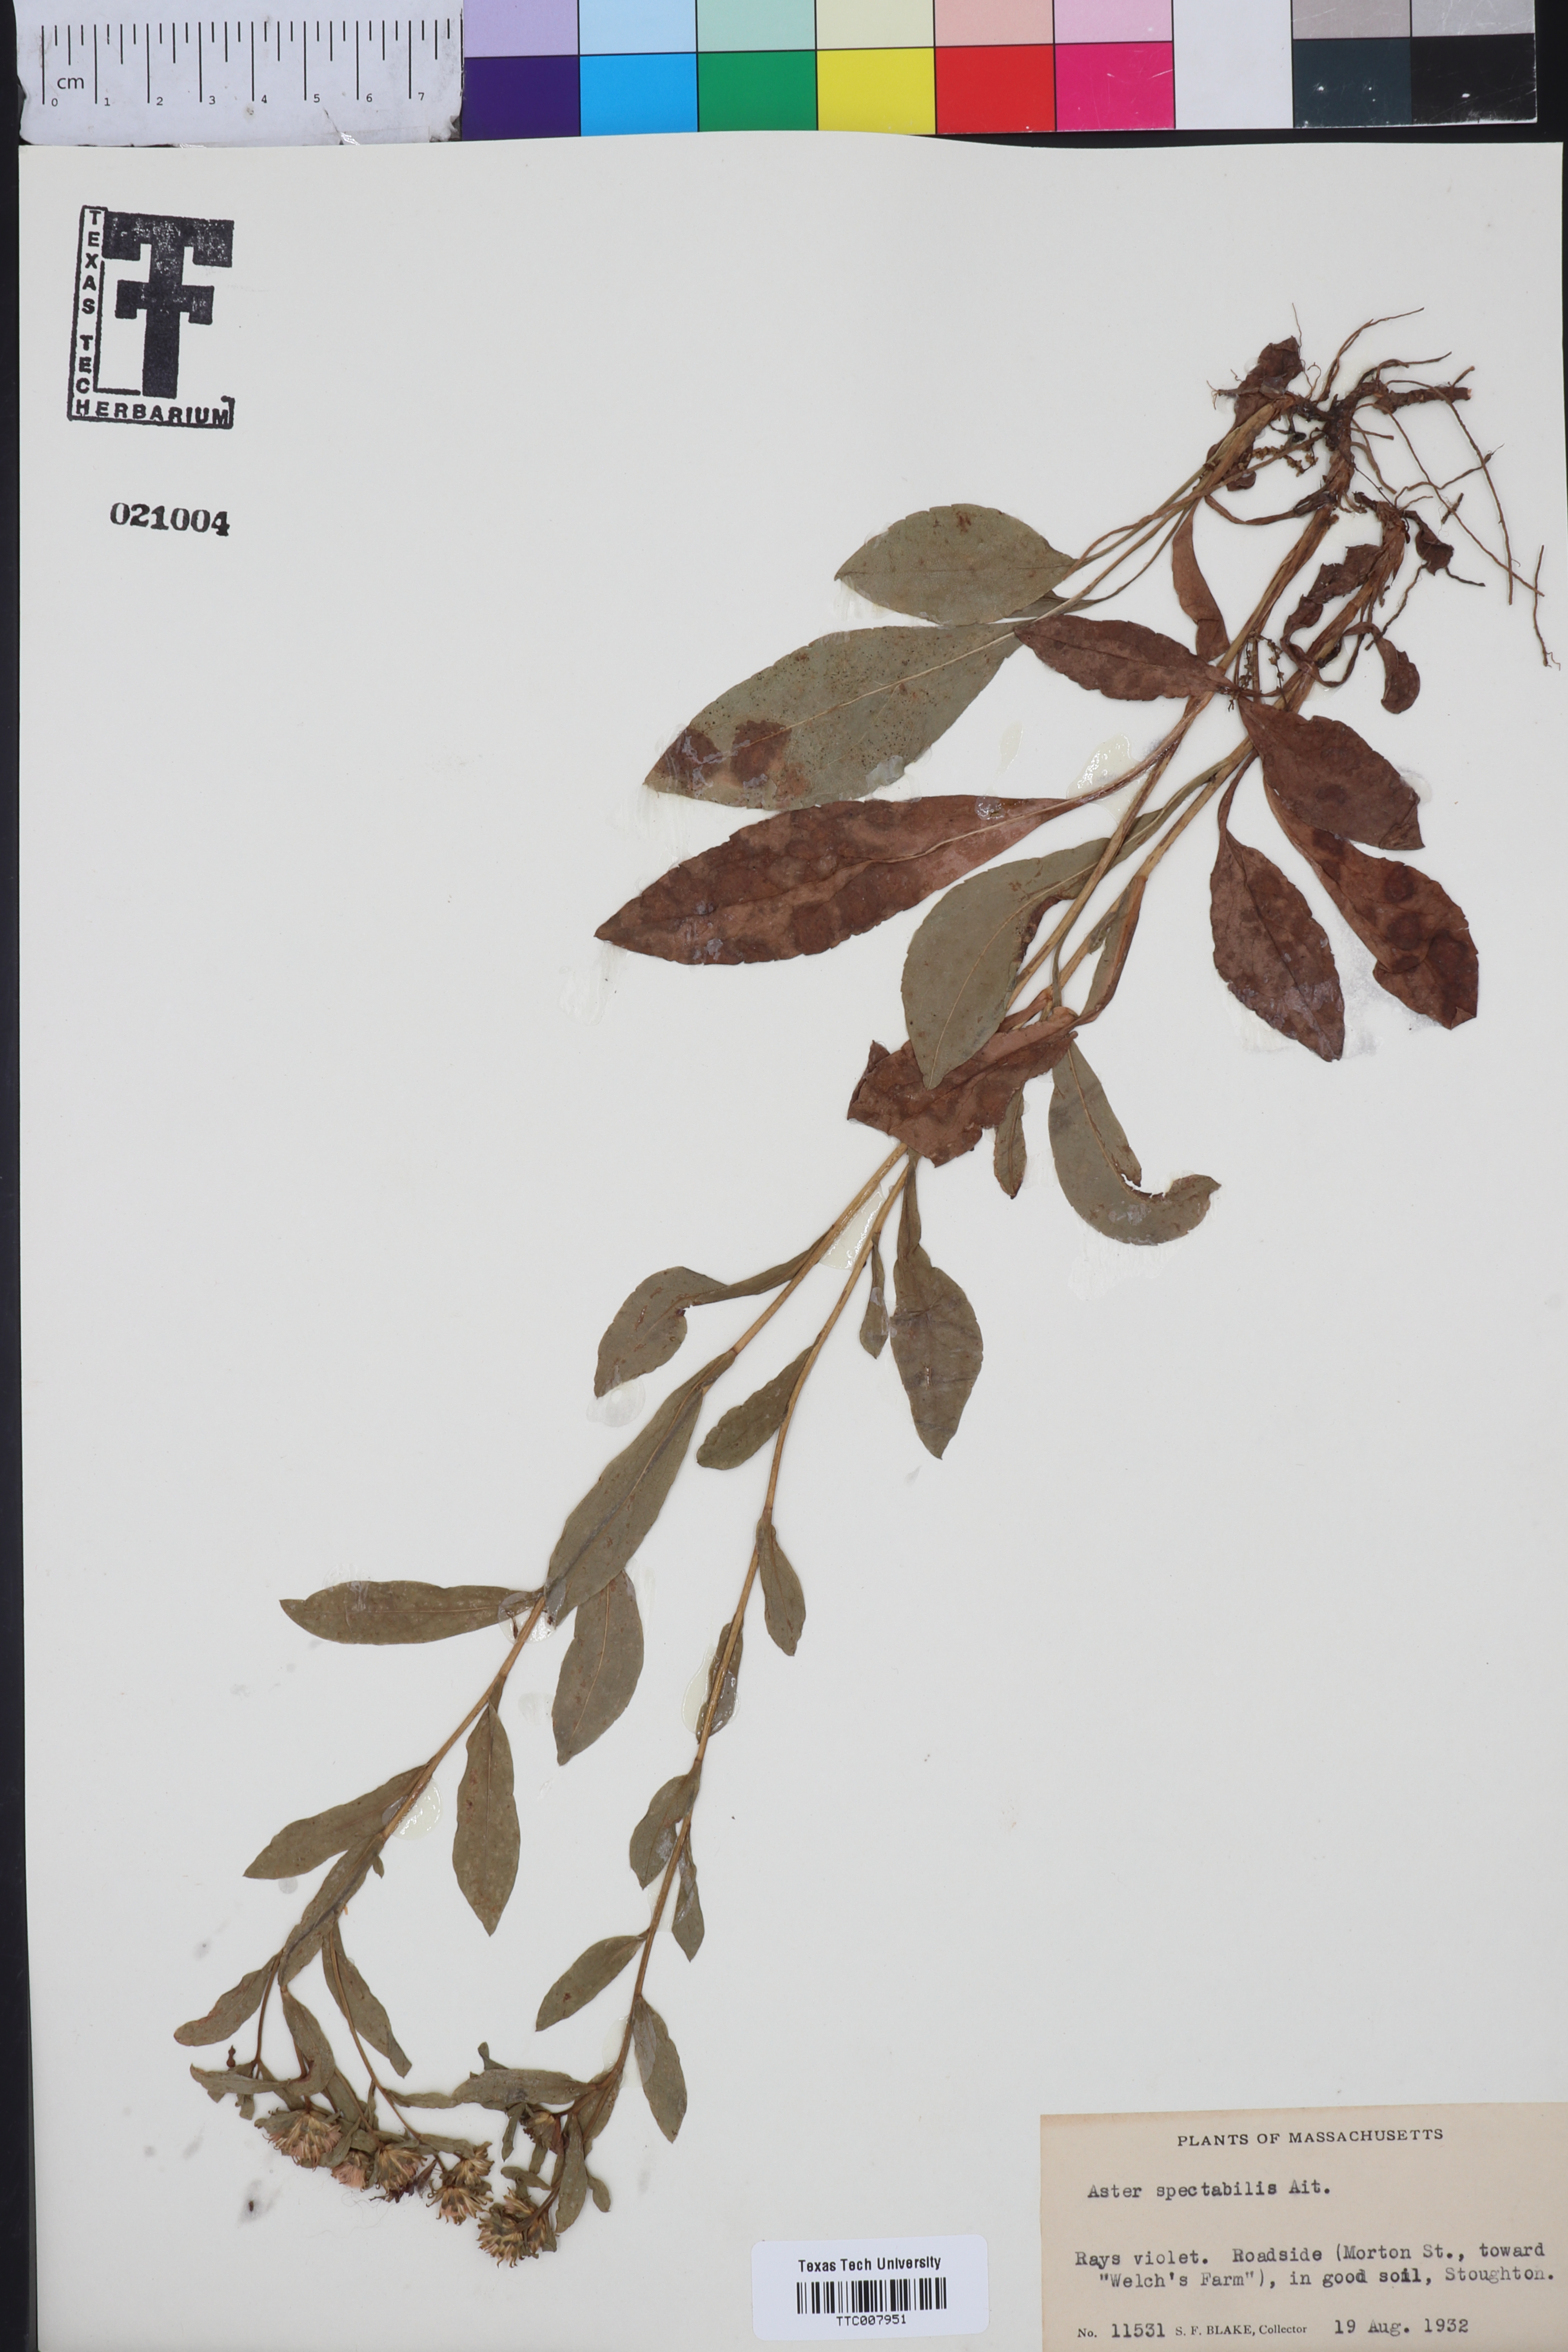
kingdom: Plantae
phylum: Tracheophyta
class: Magnoliopsida
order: Asterales
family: Asteraceae
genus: Eurybia
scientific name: Eurybia spectabilis
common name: Low showy aster
